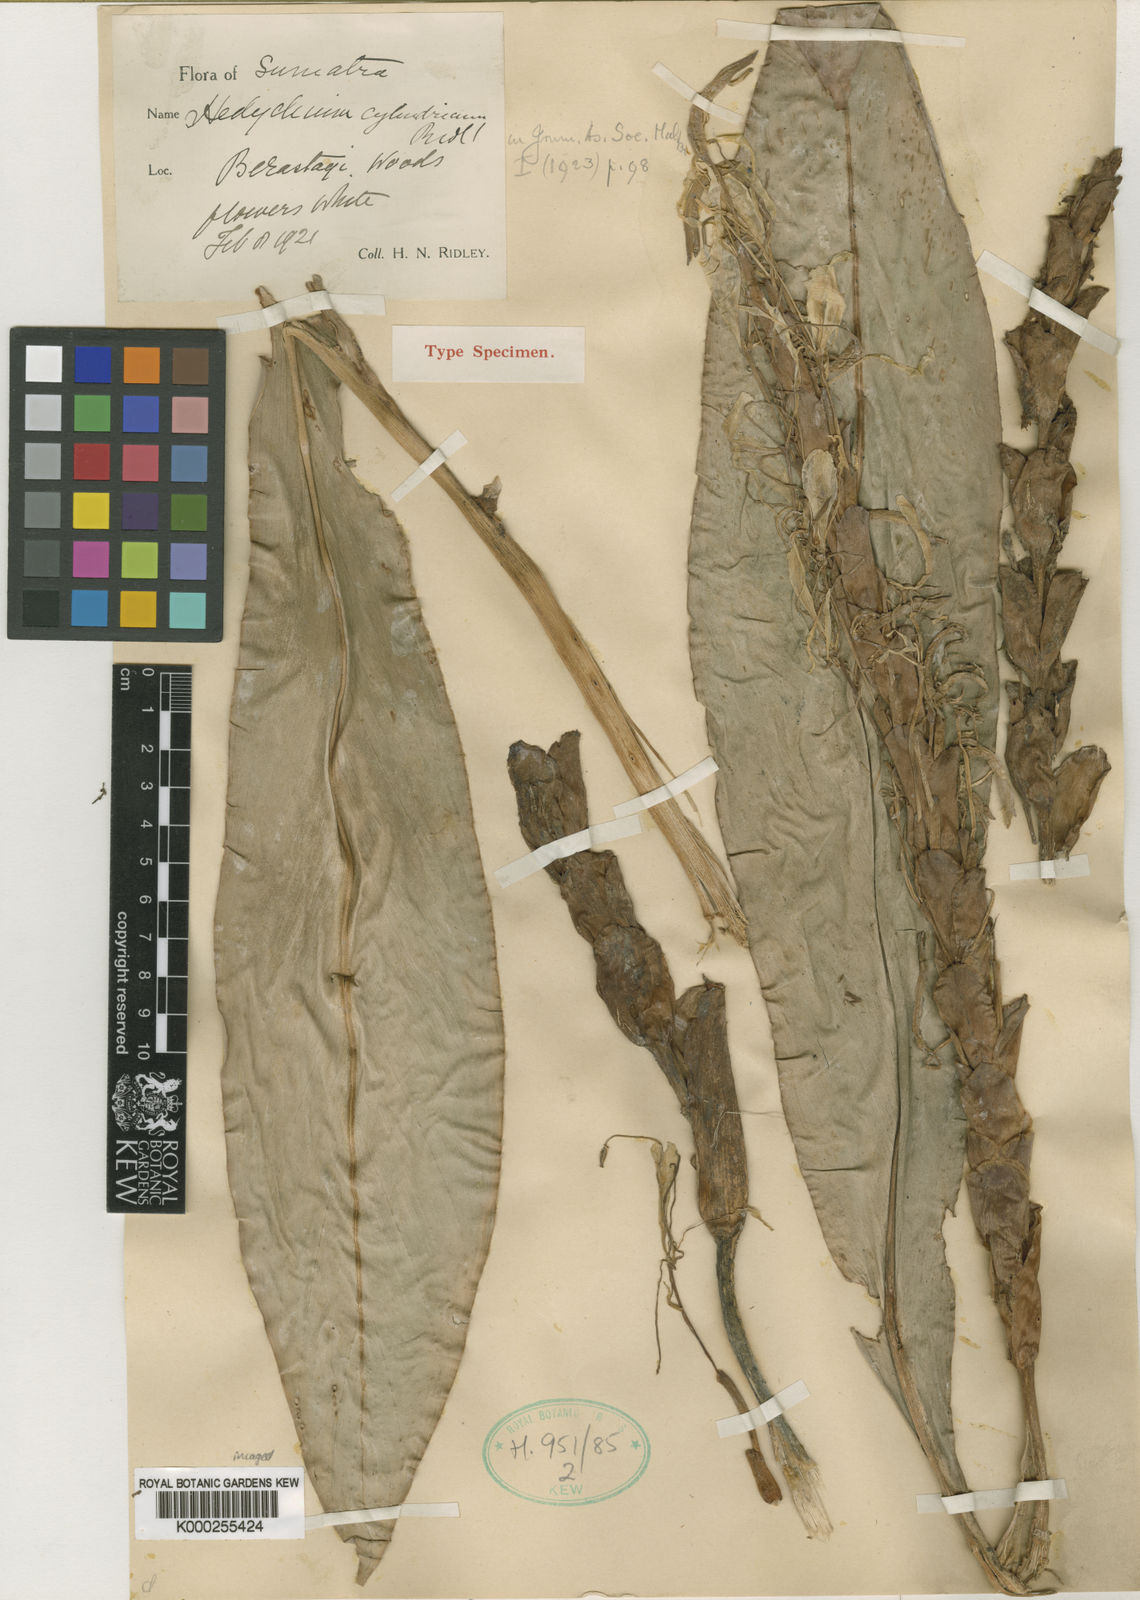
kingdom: Plantae
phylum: Tracheophyta
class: Liliopsida
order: Zingiberales
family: Zingiberaceae
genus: Hedychium
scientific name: Hedychium cylindricum
